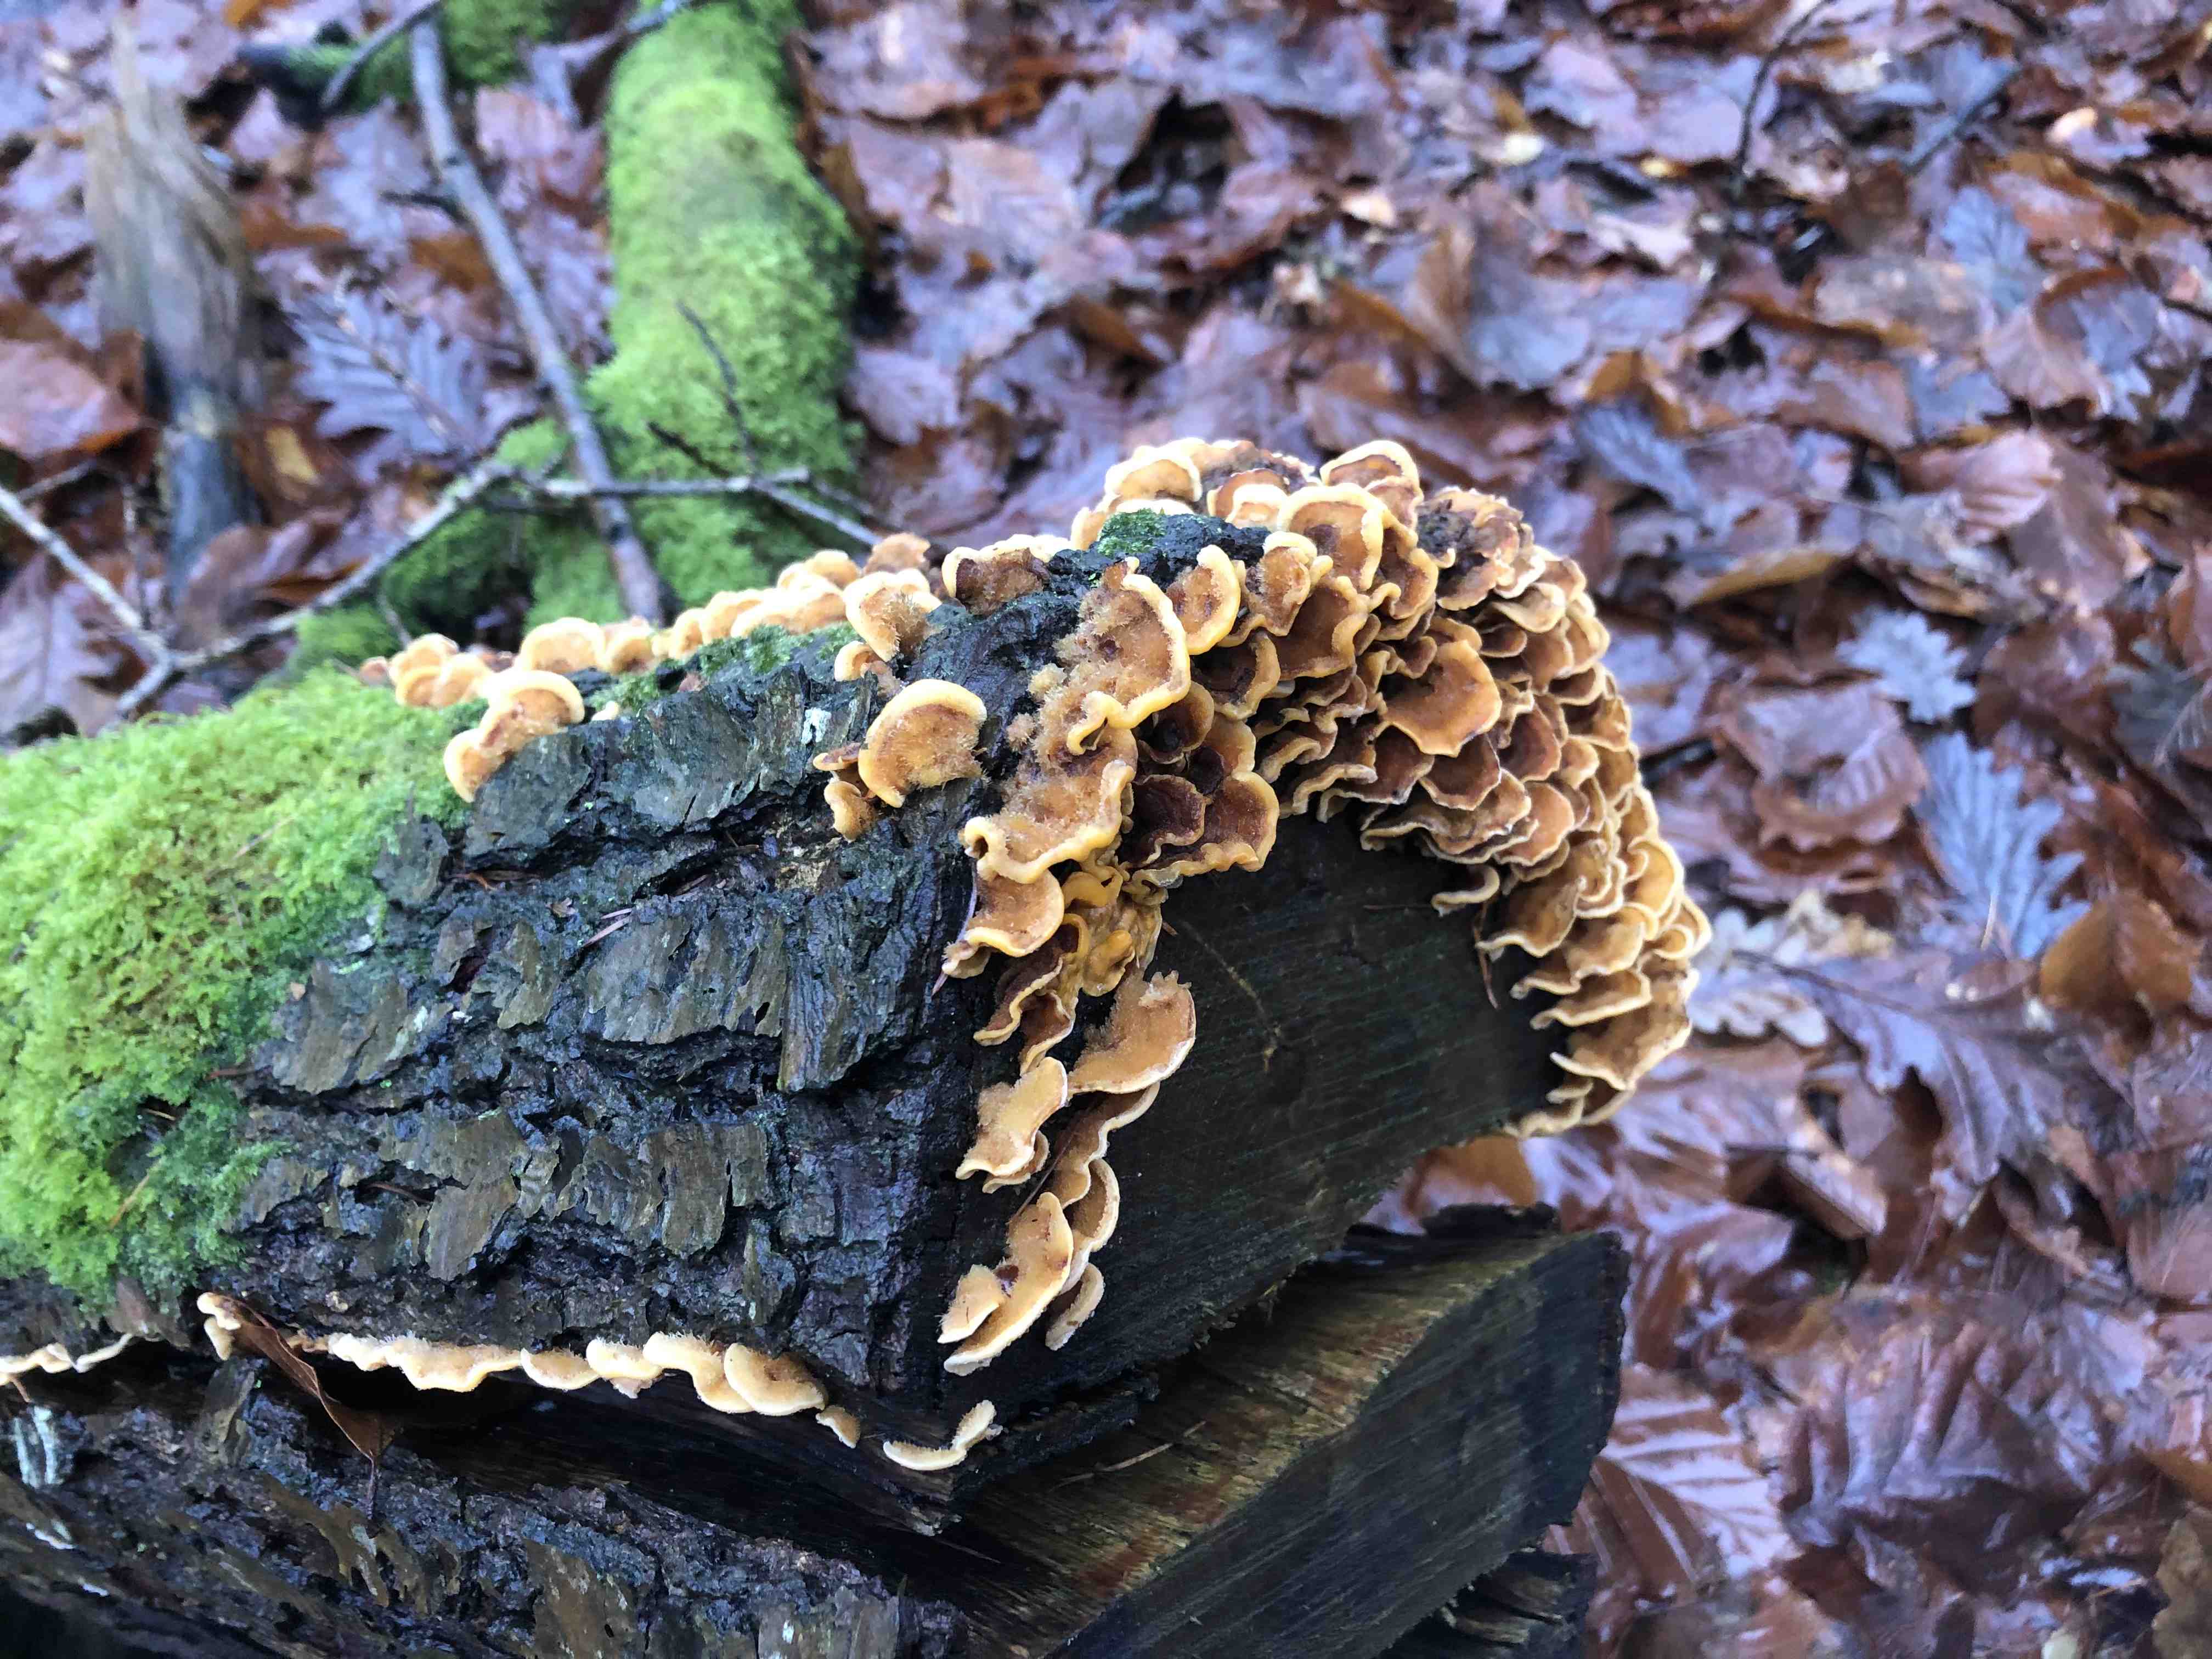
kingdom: Fungi
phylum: Basidiomycota
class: Agaricomycetes
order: Russulales
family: Stereaceae
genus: Stereum
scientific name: Stereum hirsutum
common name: håret lædersvamp
